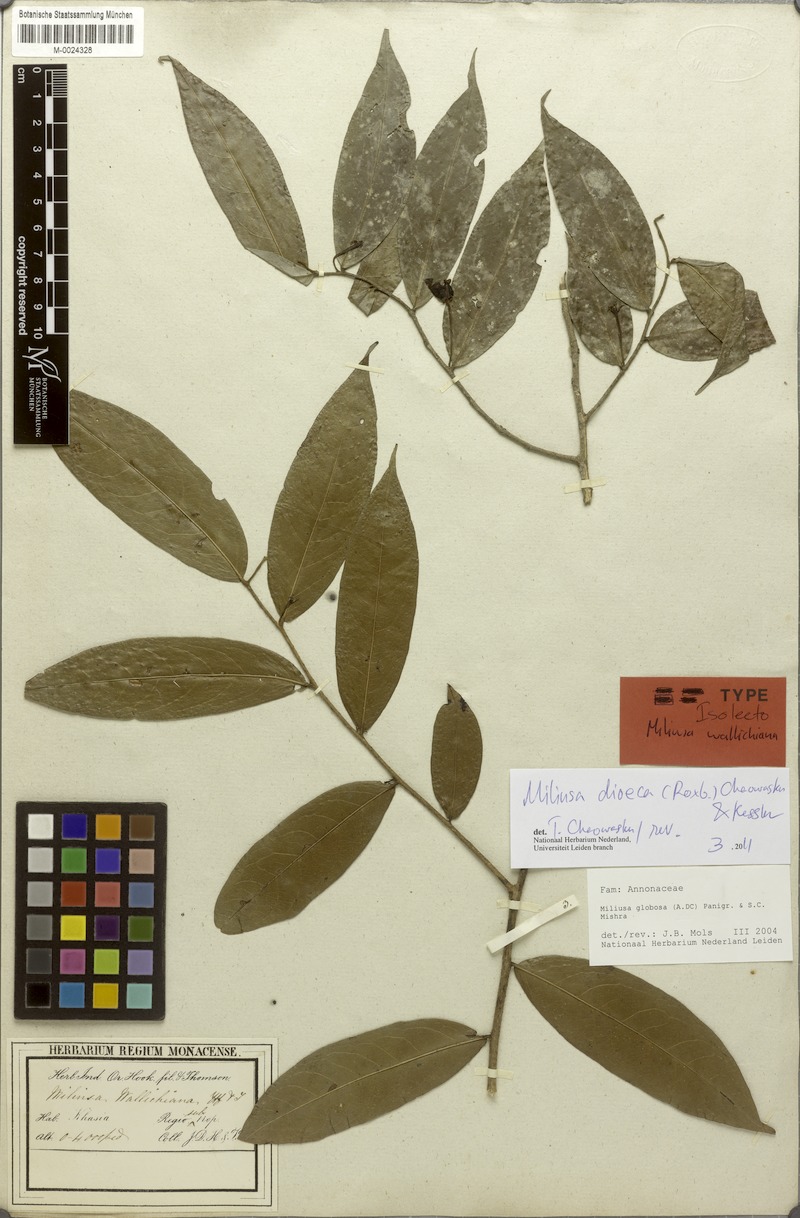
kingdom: Plantae
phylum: Tracheophyta
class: Magnoliopsida
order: Magnoliales
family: Annonaceae
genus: Miliusa
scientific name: Miliusa globosa
